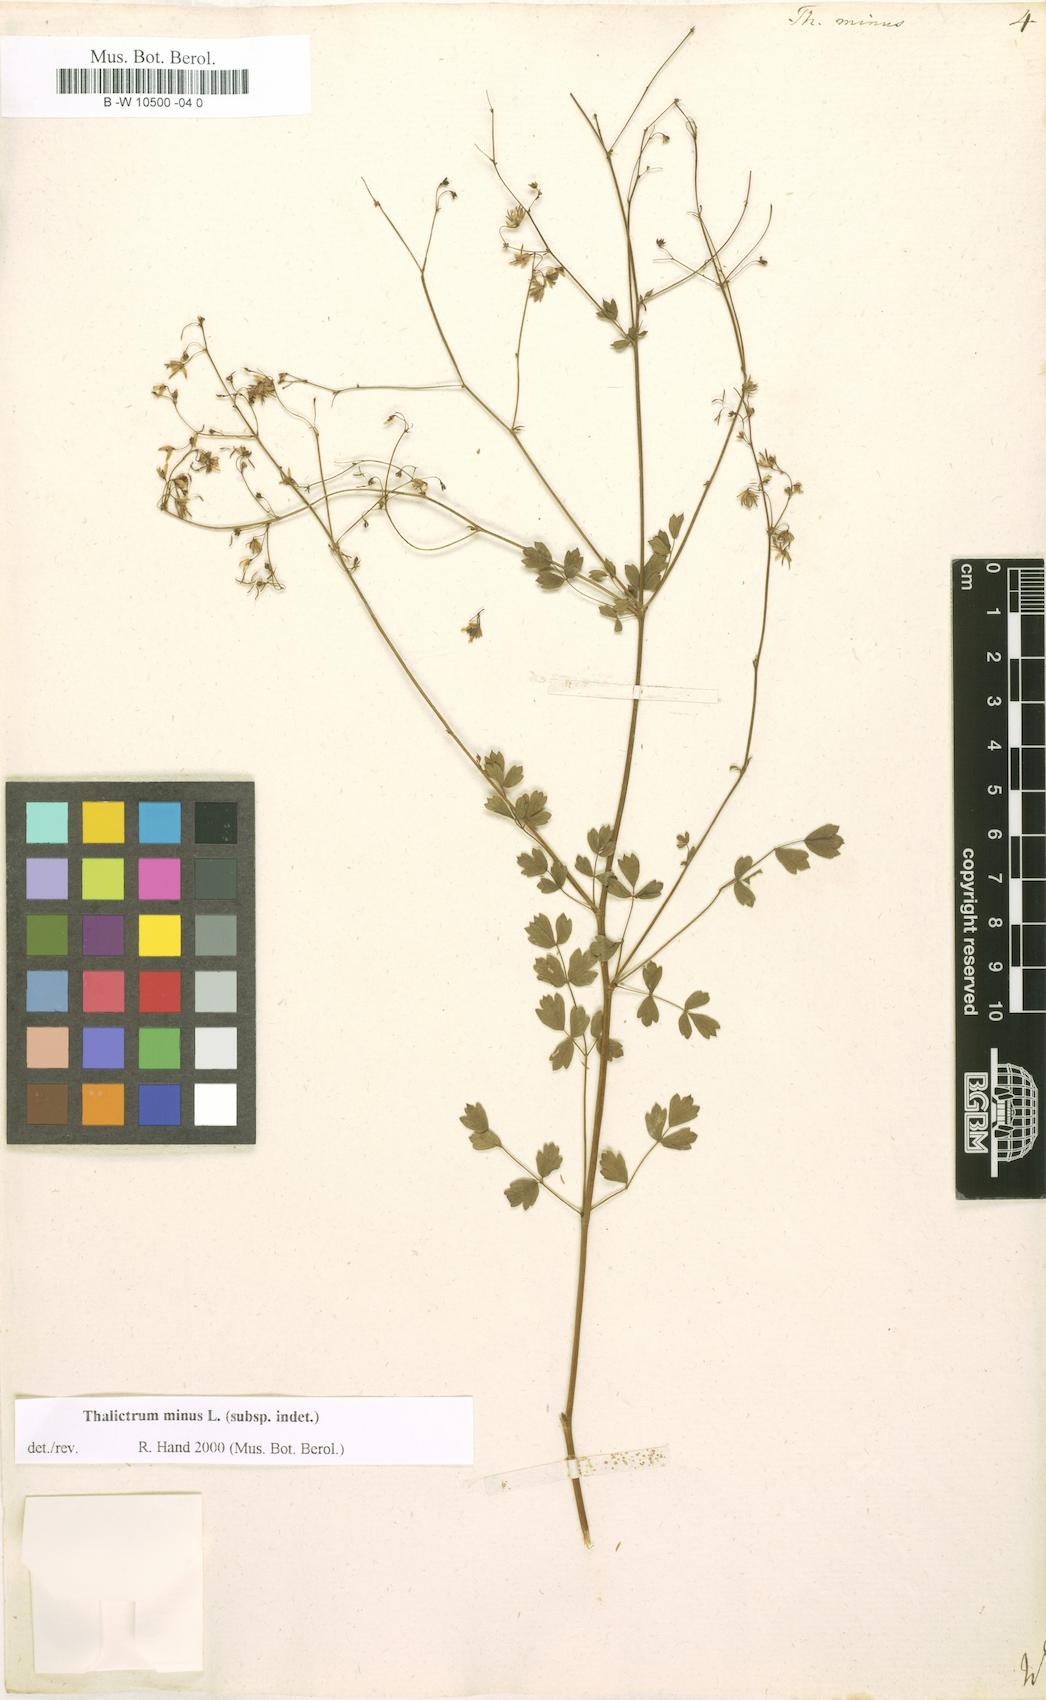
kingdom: Plantae
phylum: Tracheophyta
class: Magnoliopsida
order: Ranunculales
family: Ranunculaceae
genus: Thalictrum
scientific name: Thalictrum minus
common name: Lesser meadow-rue
